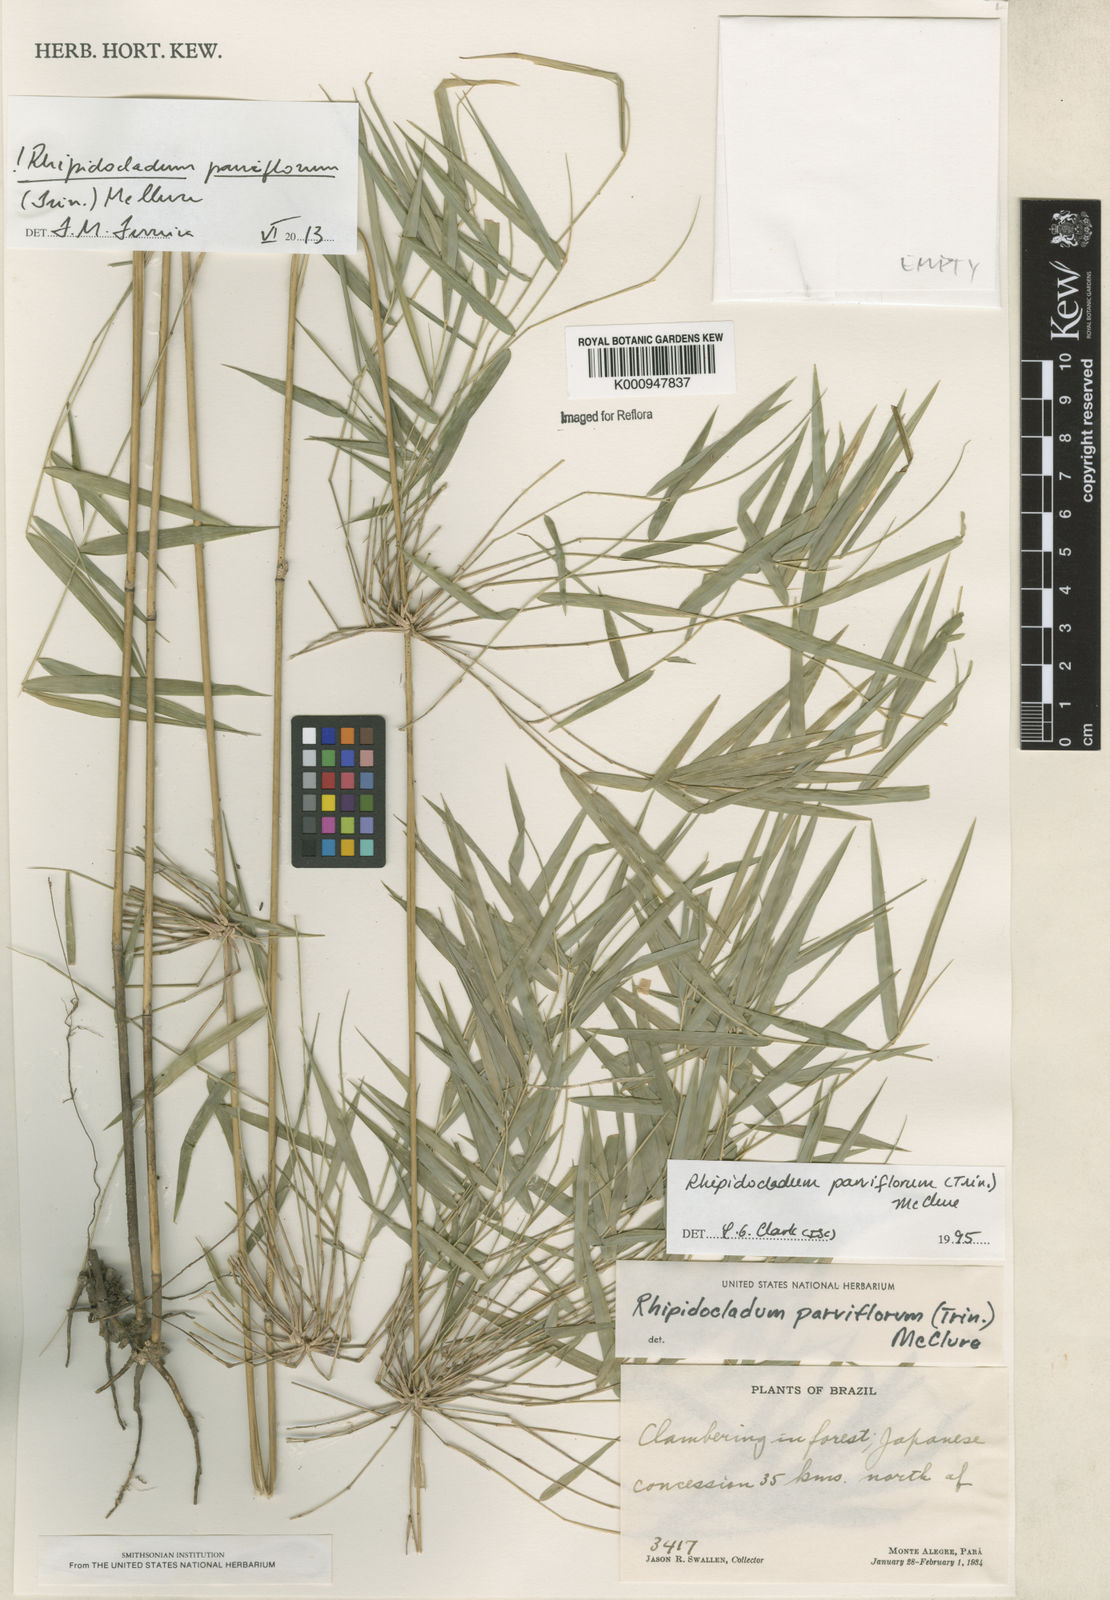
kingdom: Plantae
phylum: Tracheophyta
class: Liliopsida
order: Poales
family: Poaceae
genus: Rhipidocladum
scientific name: Rhipidocladum parviflorum
